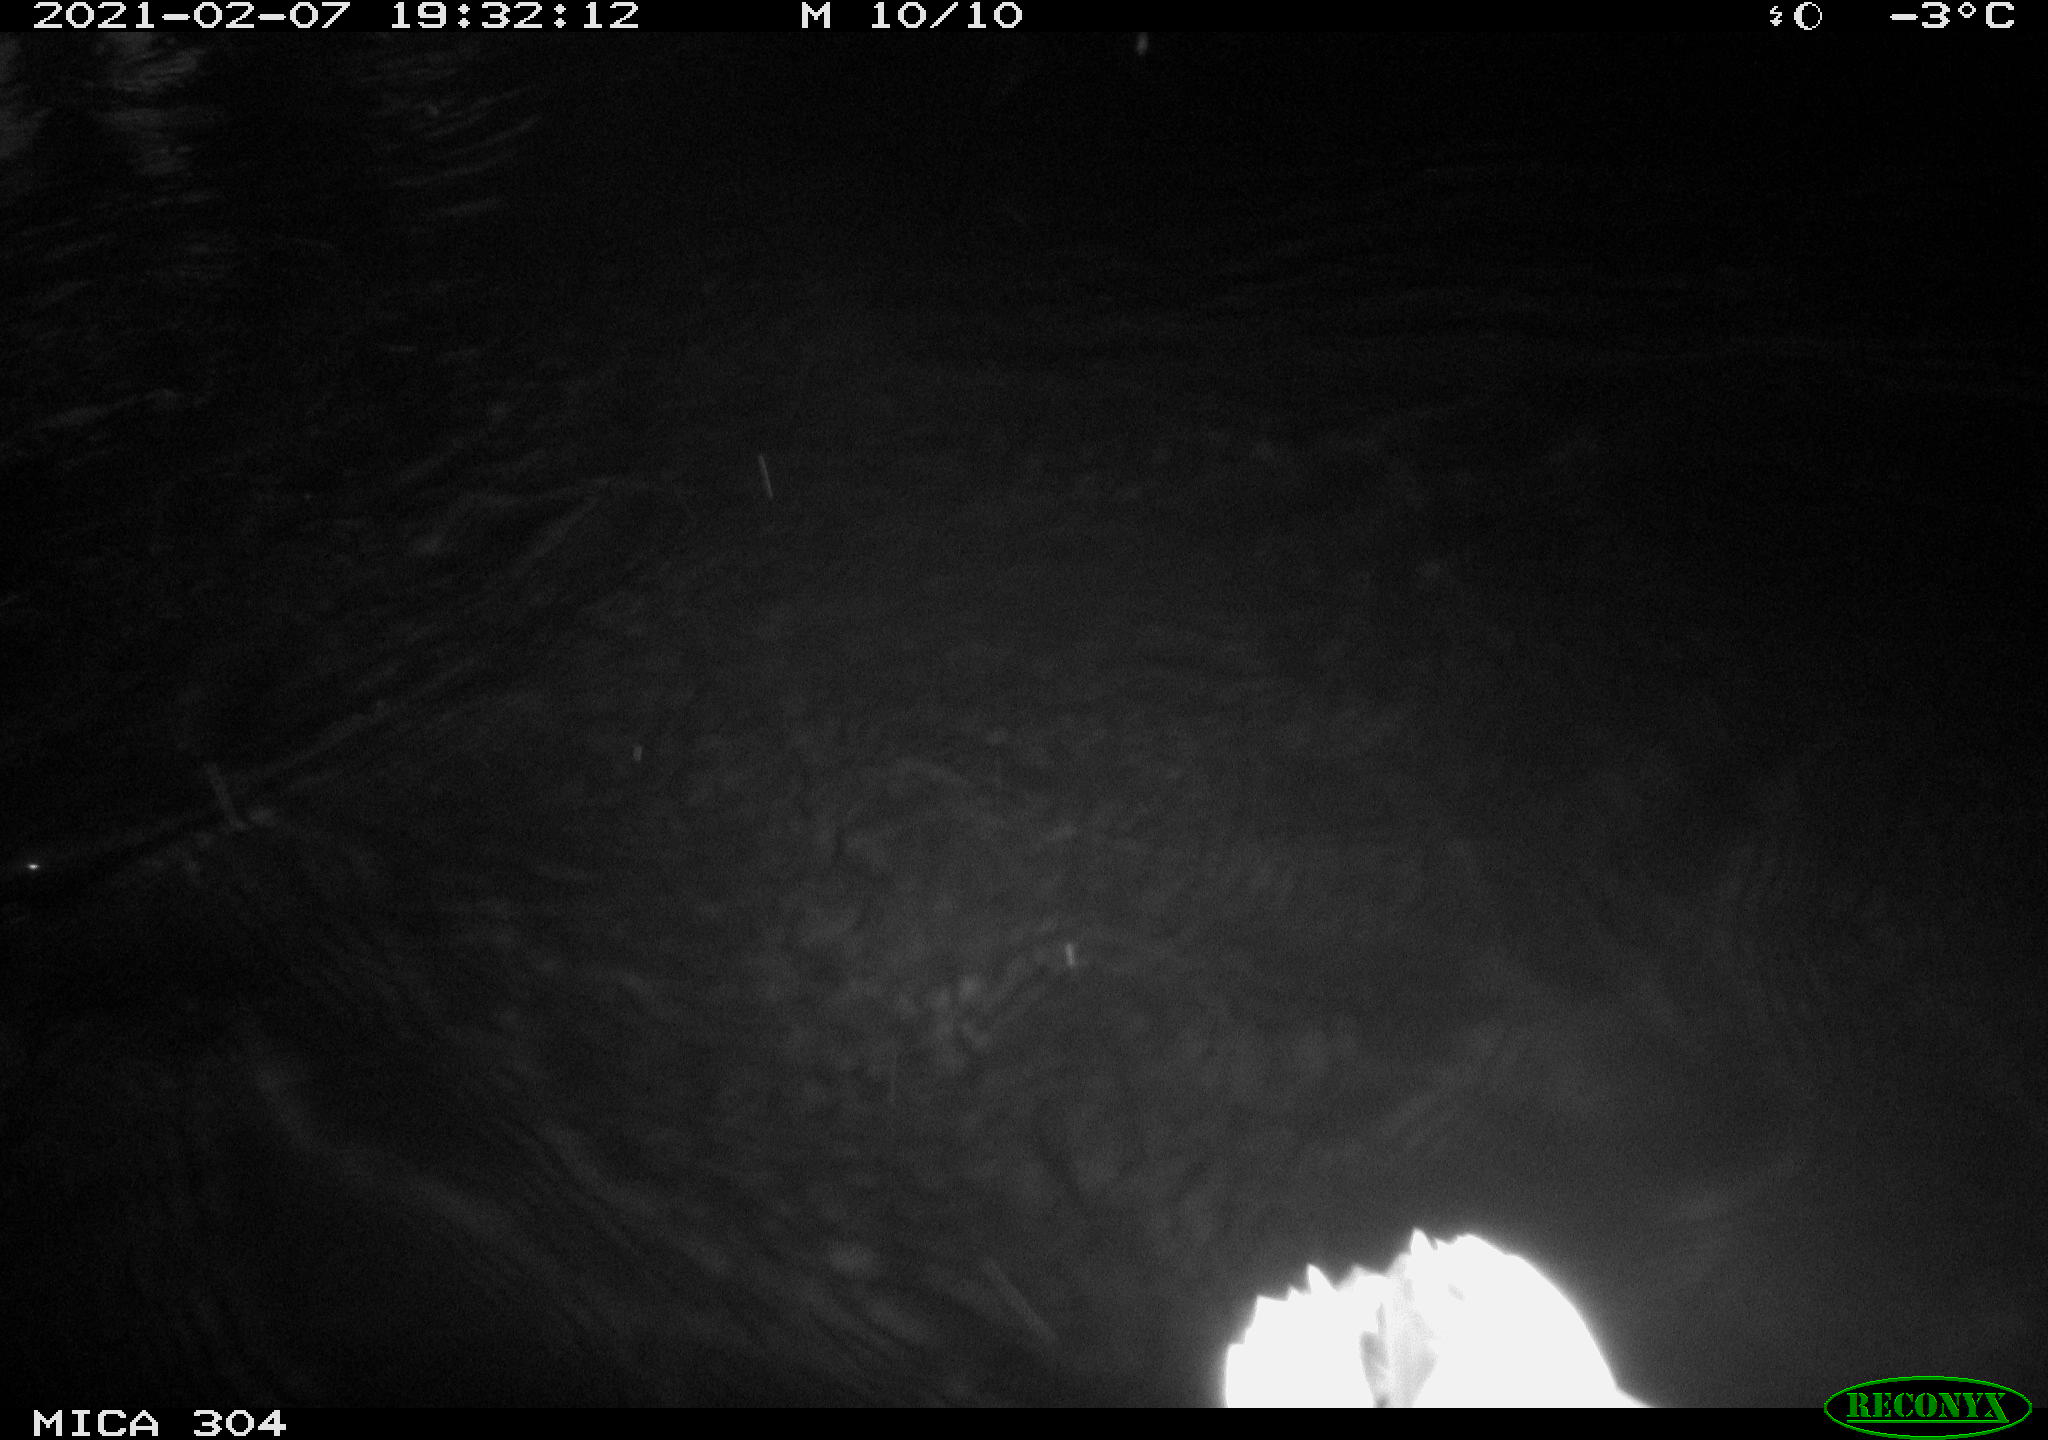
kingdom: Animalia
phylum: Chordata
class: Aves
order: Anseriformes
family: Anatidae
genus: Anas
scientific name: Anas platyrhynchos
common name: Mallard
